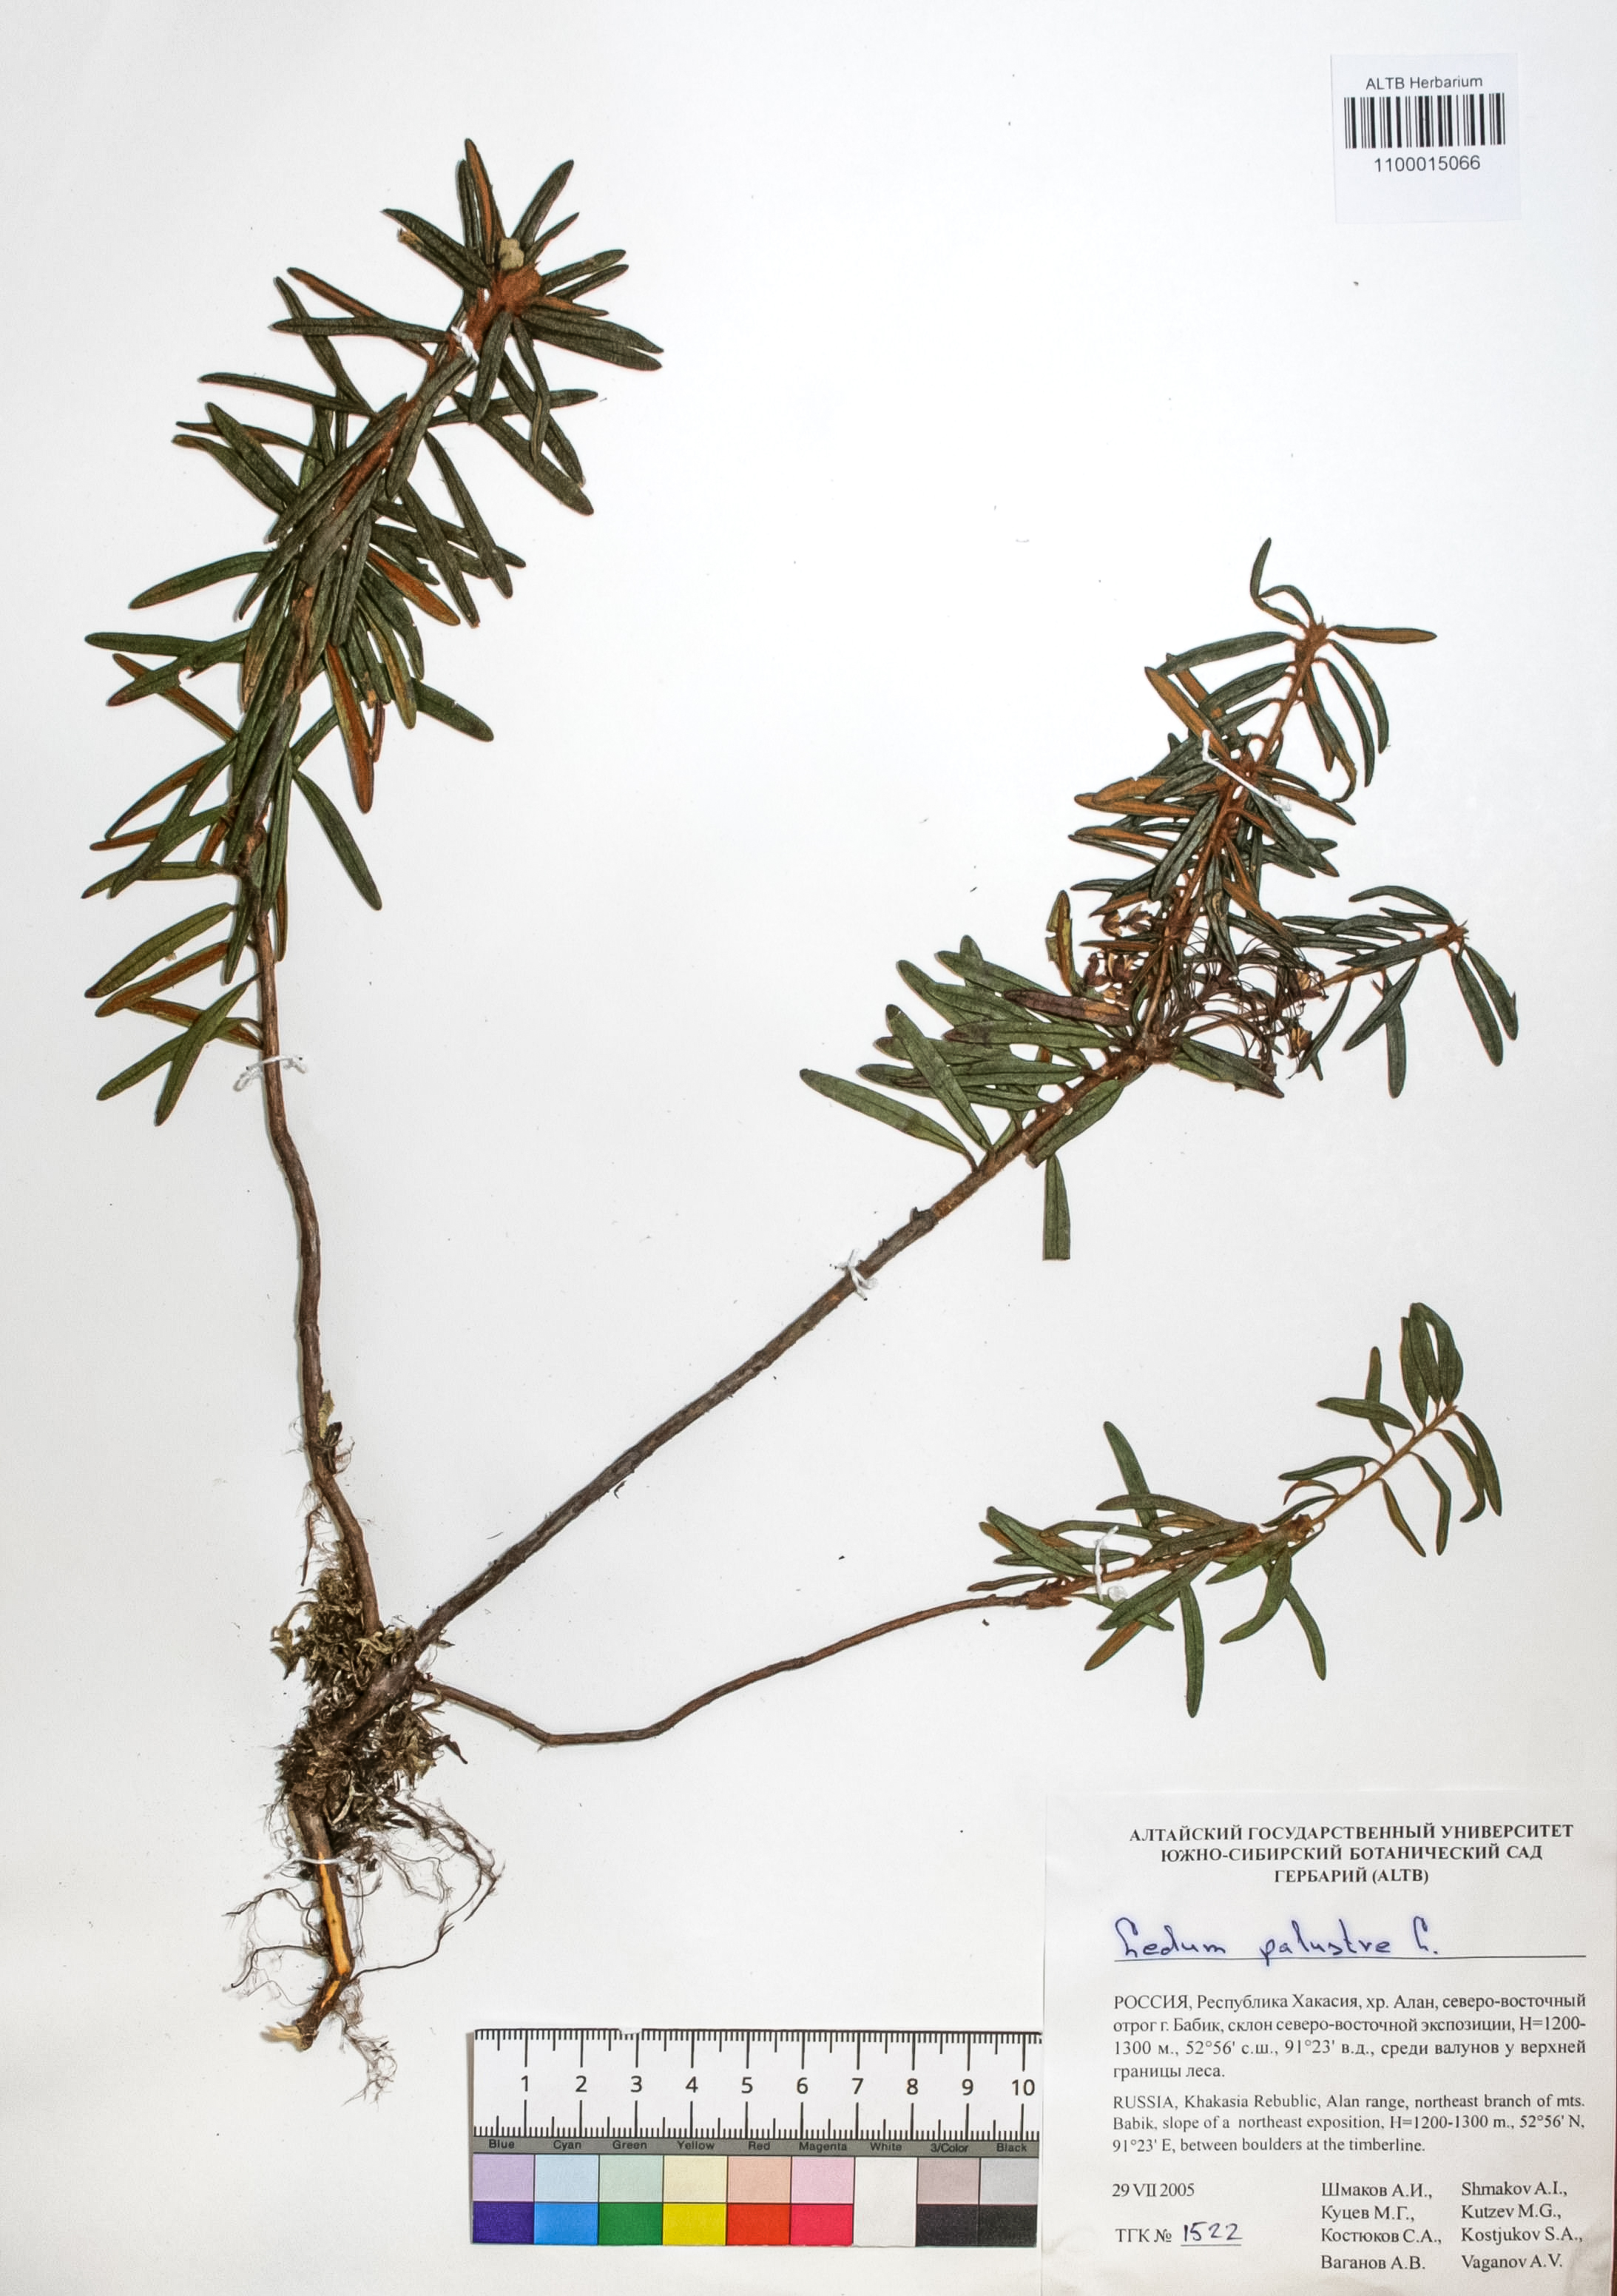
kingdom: Plantae
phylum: Tracheophyta
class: Magnoliopsida
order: Ericales
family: Ericaceae
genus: Rhododendron
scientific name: Rhododendron tomentosum
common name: Marsh labrador tea
